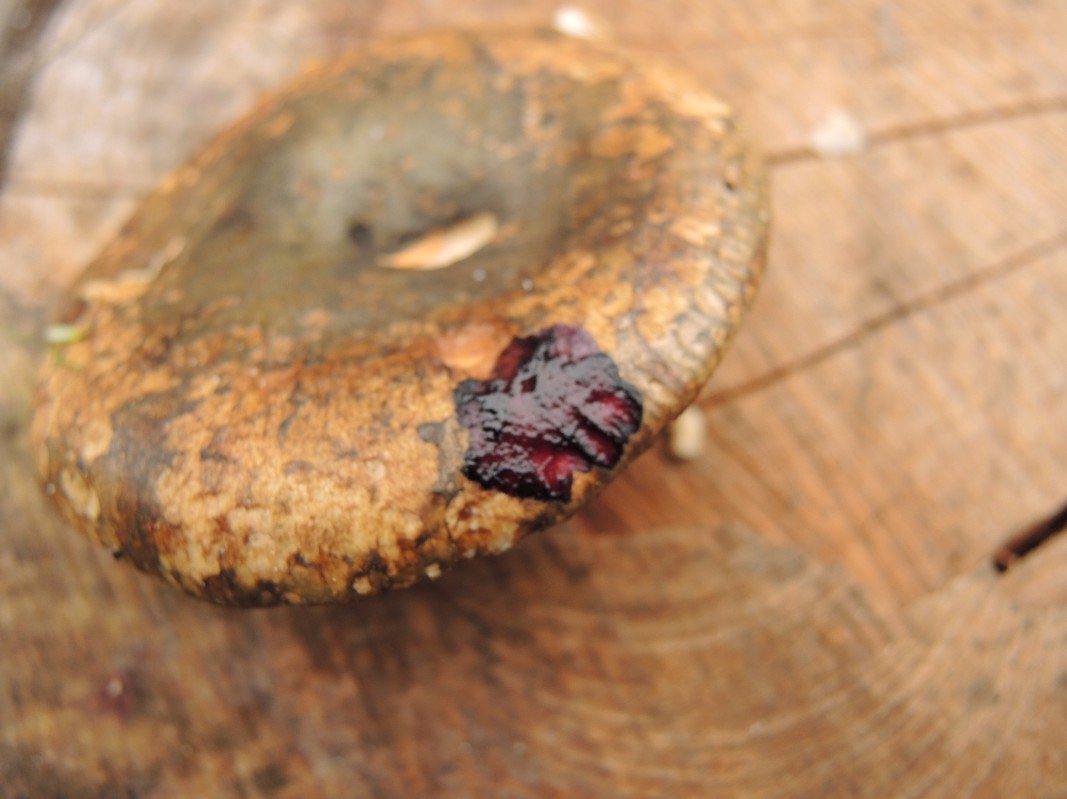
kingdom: Fungi
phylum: Basidiomycota
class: Agaricomycetes
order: Russulales
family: Russulaceae
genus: Lactarius
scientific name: Lactarius necator
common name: manddraber-mælkehat
